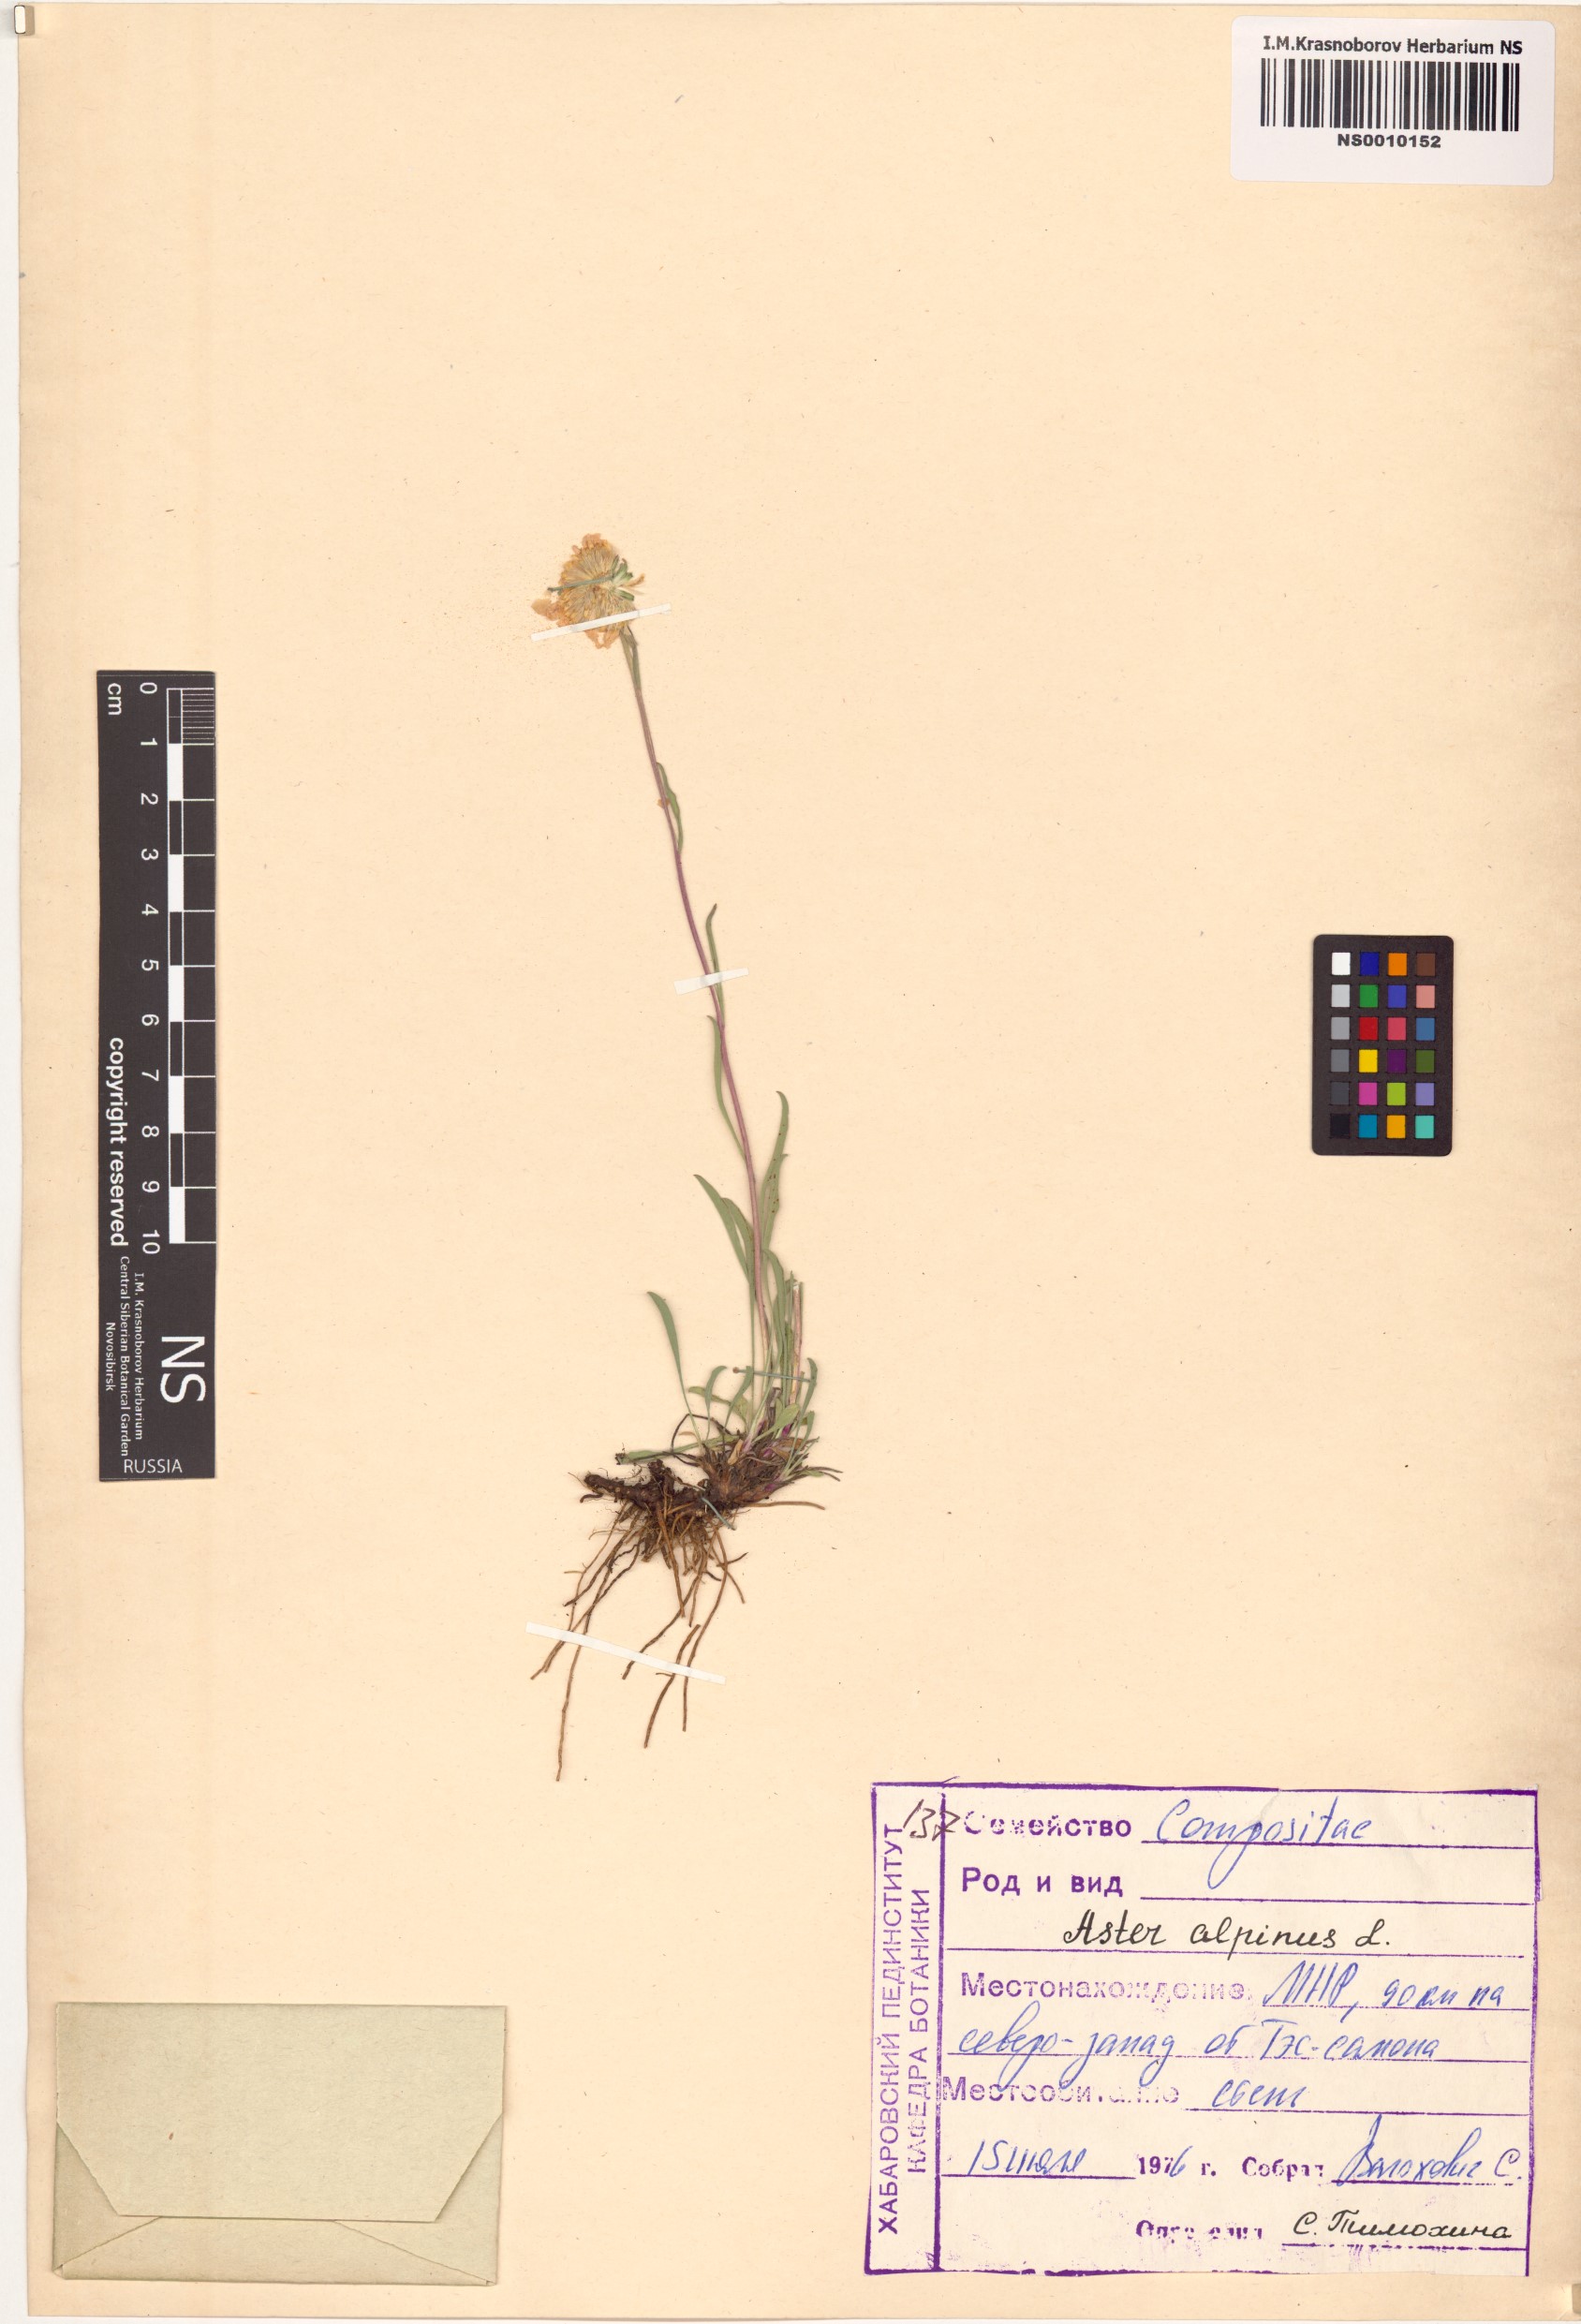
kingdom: Plantae
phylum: Tracheophyta
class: Magnoliopsida
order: Asterales
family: Asteraceae
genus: Aster
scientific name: Aster alpinus
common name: Alpine aster
